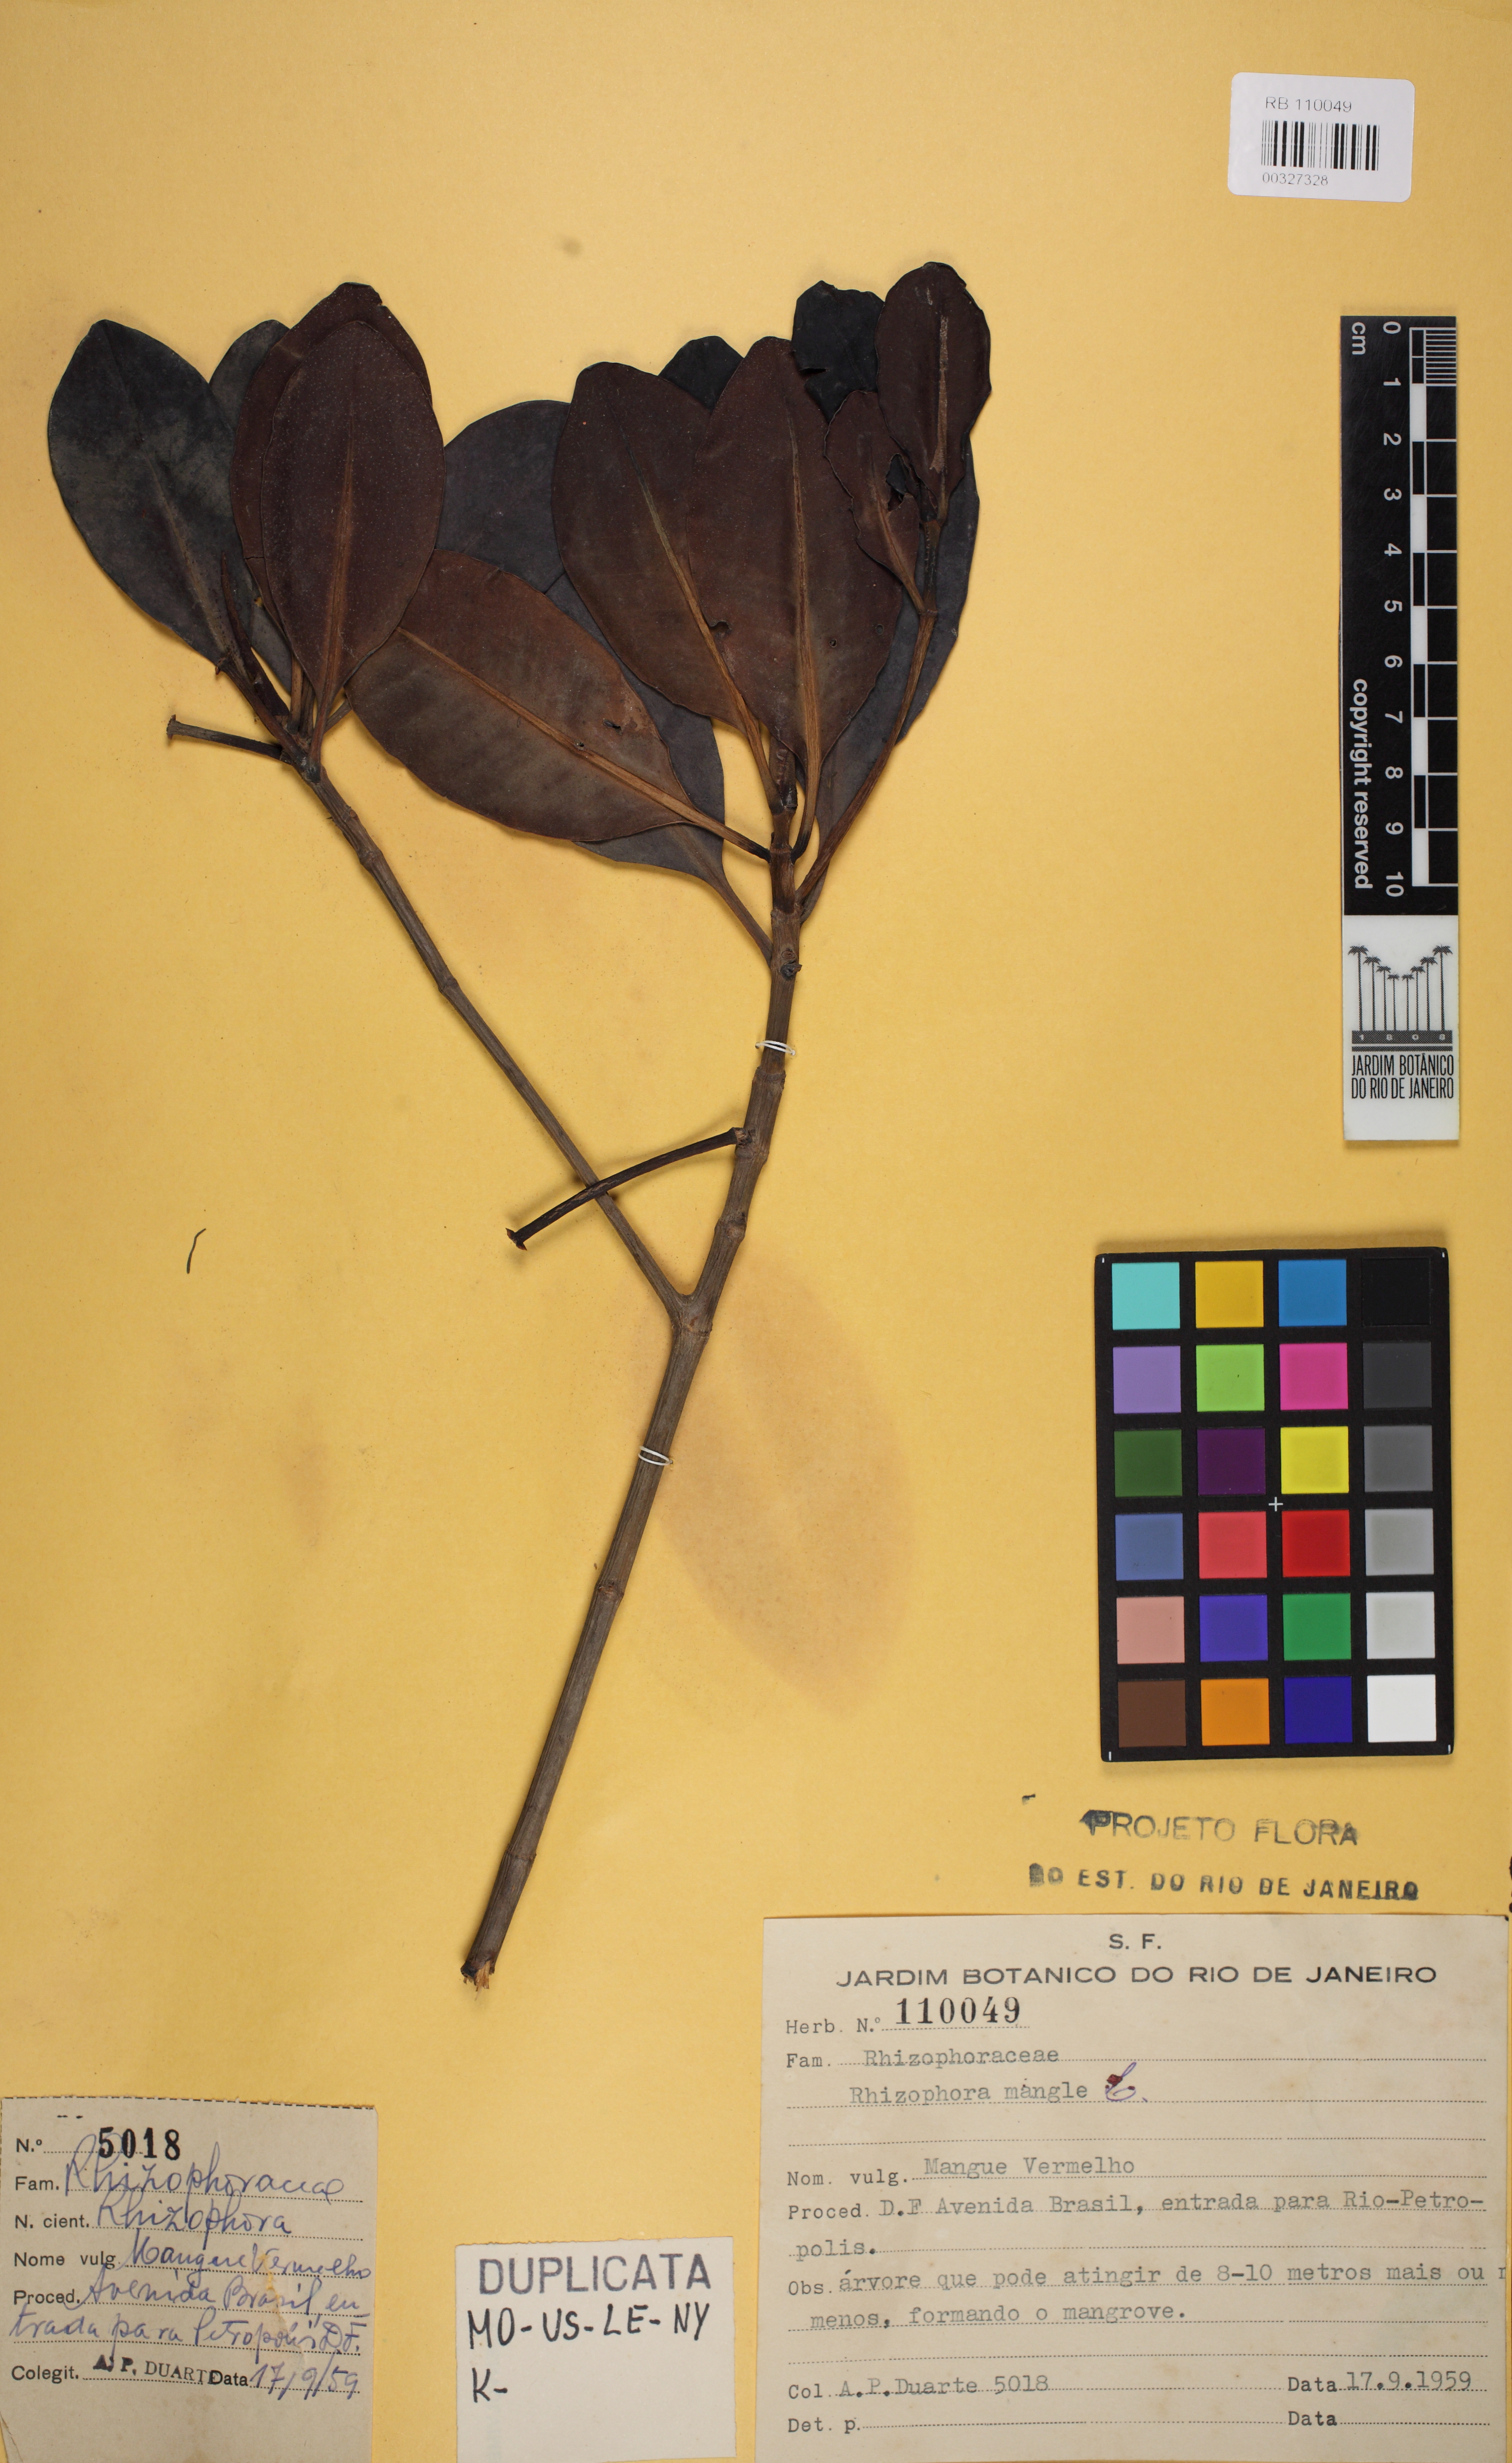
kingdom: Plantae
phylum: Tracheophyta
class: Magnoliopsida
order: Malpighiales
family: Rhizophoraceae
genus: Rhizophora
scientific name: Rhizophora mangle
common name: Red mangrove
